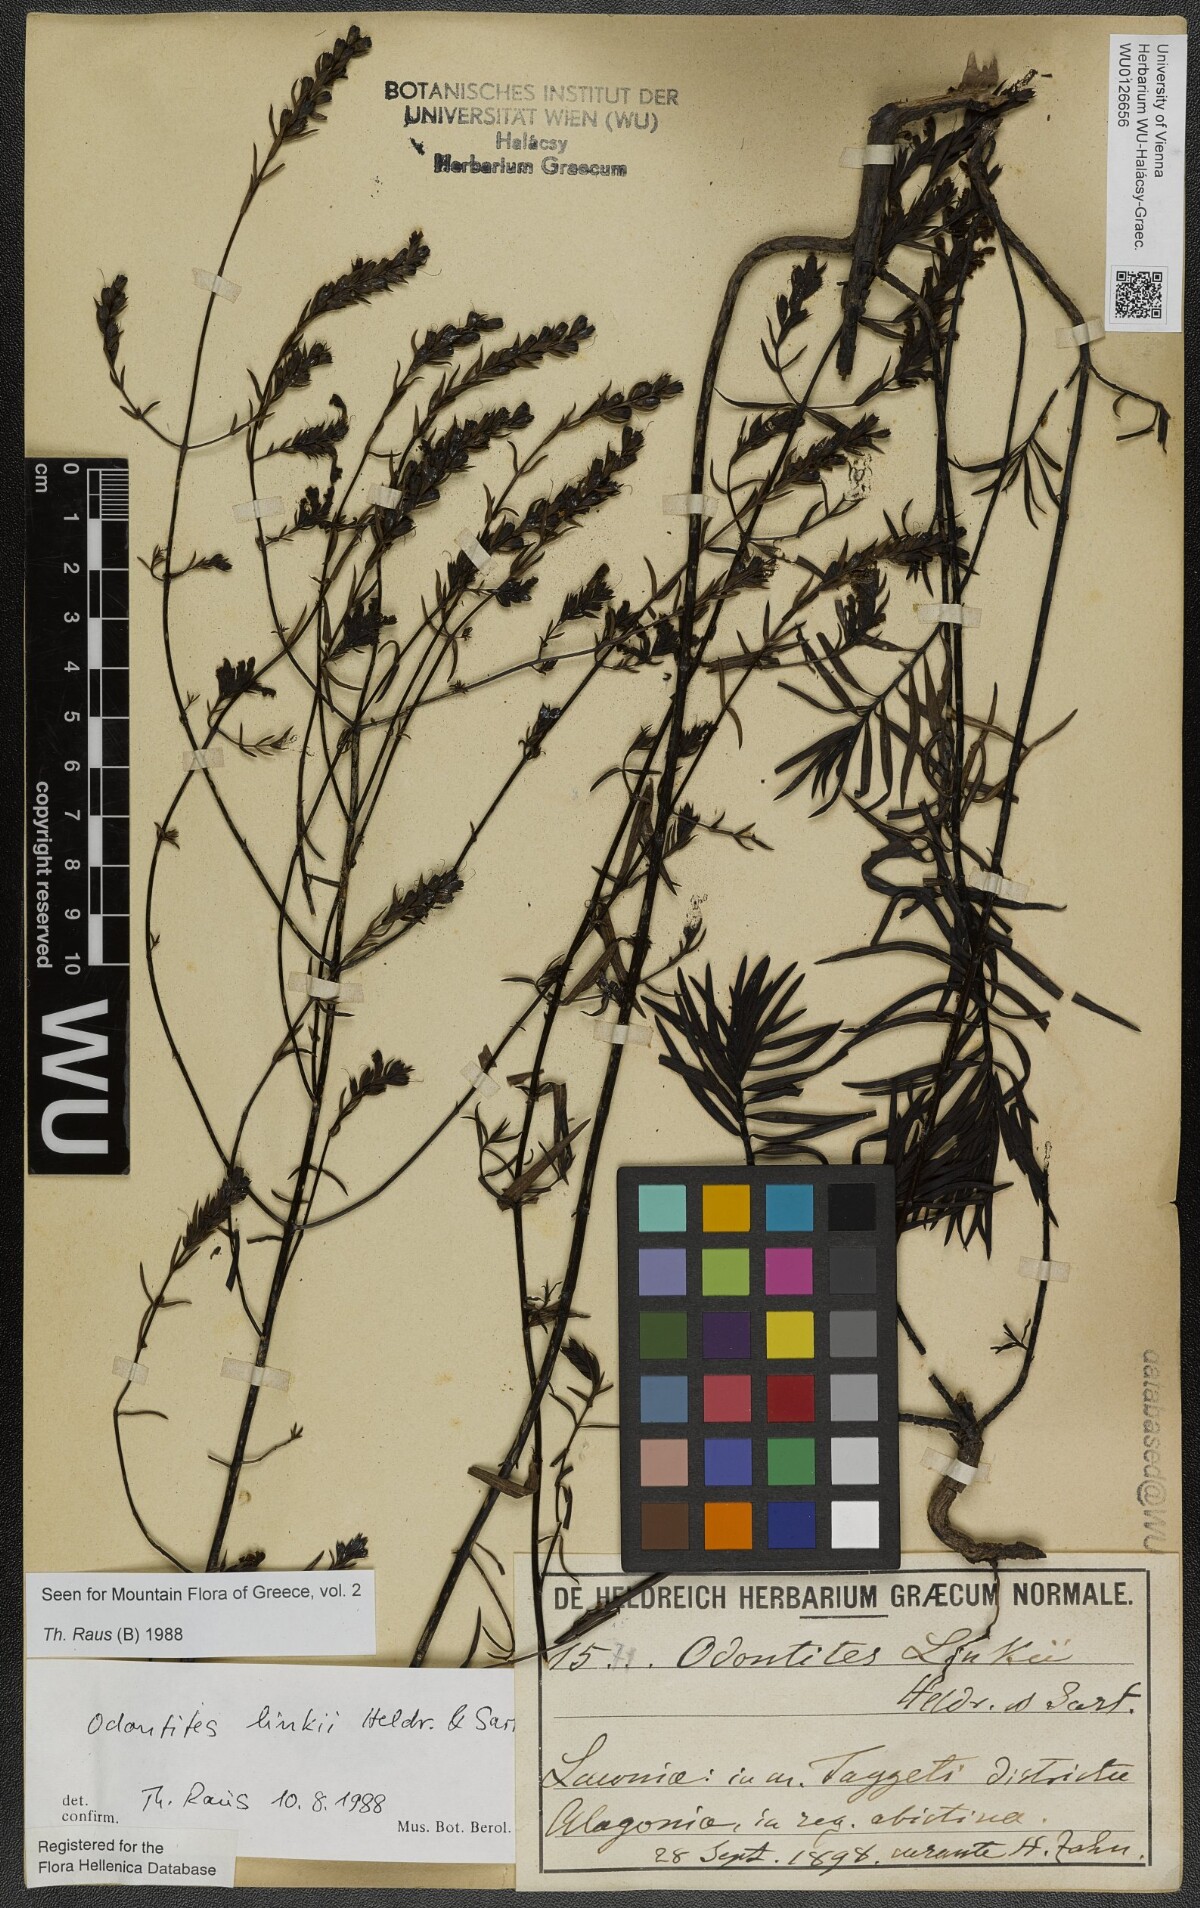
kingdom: Plantae
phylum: Tracheophyta
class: Magnoliopsida
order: Lamiales
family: Scrophulariaceae
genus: Odontites
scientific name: Odontites linkii
